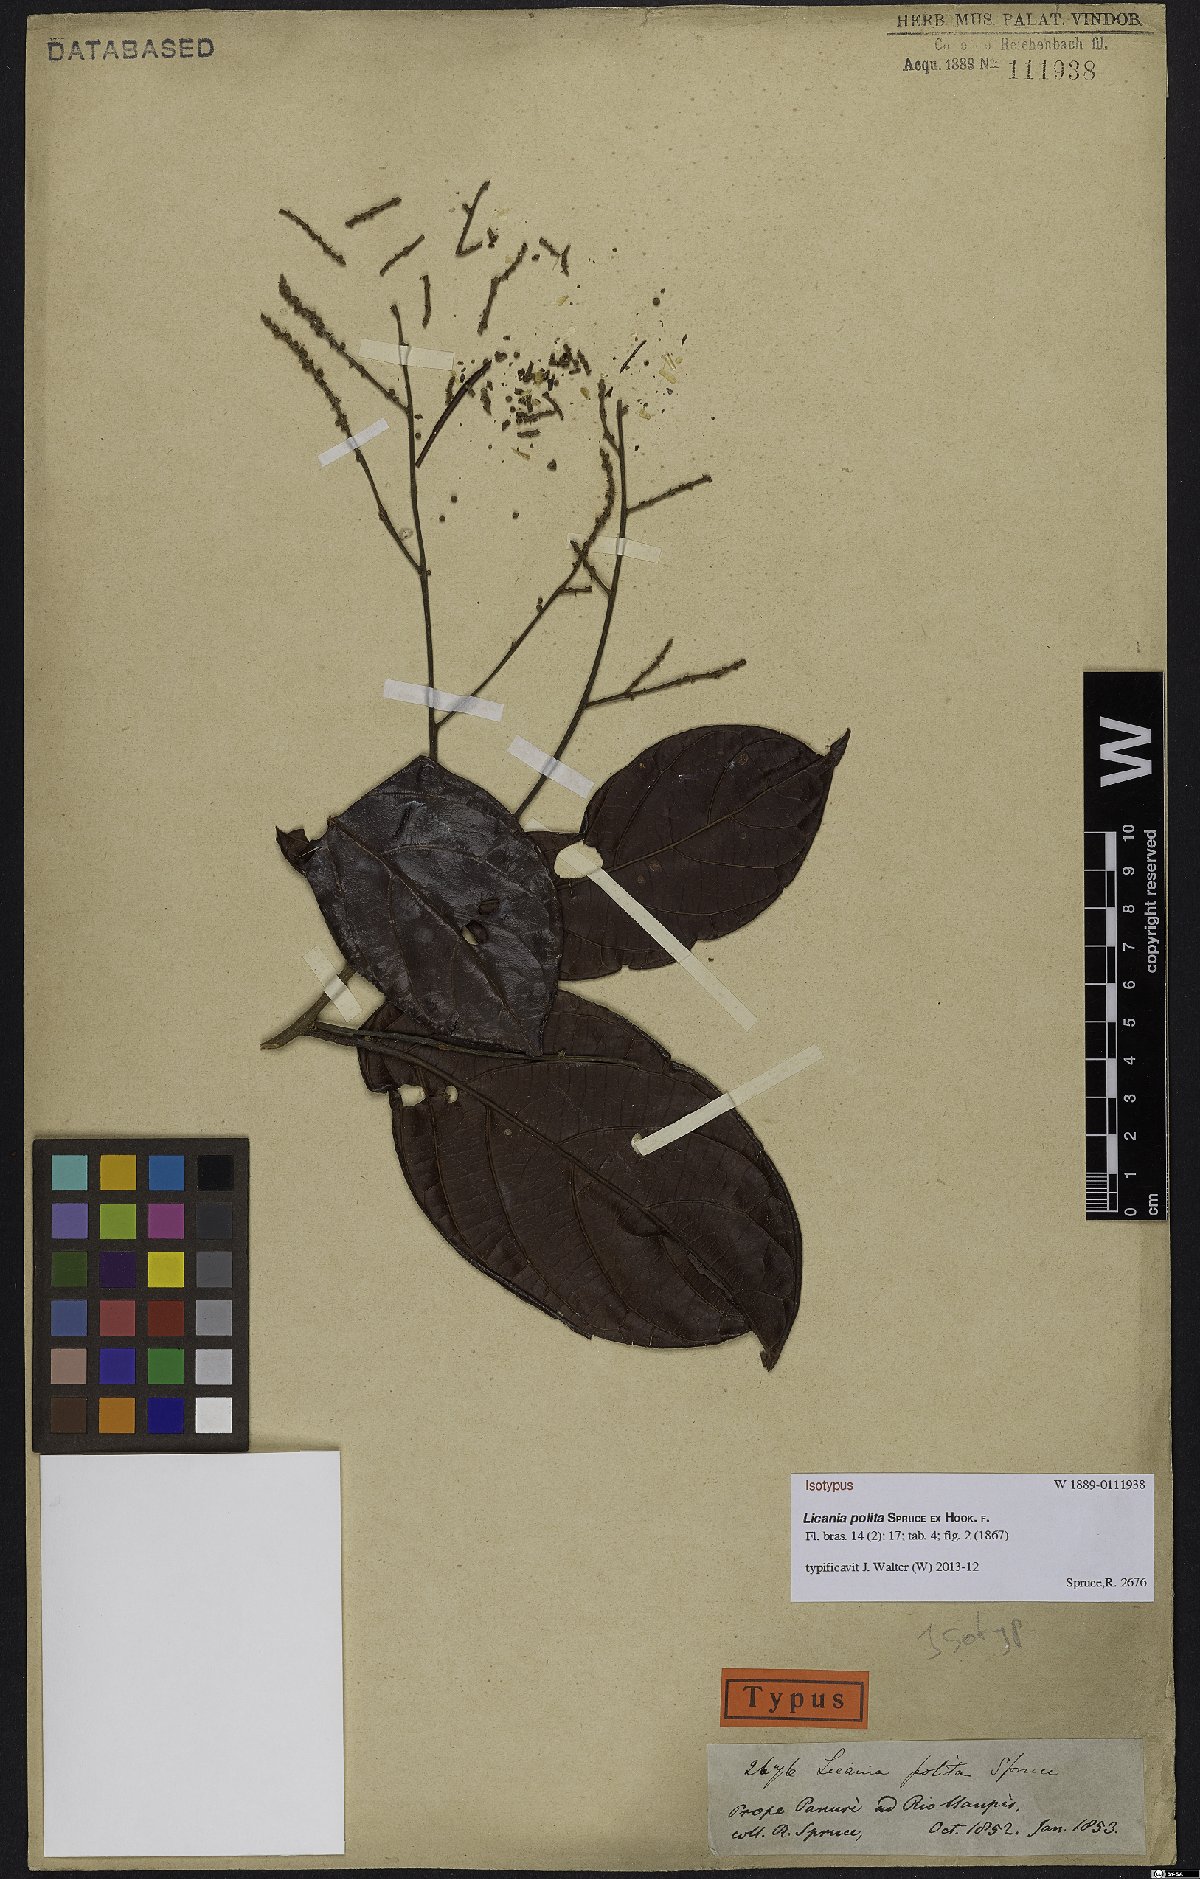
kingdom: Plantae
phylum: Tracheophyta
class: Magnoliopsida
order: Malpighiales
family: Chrysobalanaceae
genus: Licania
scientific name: Licania polita
